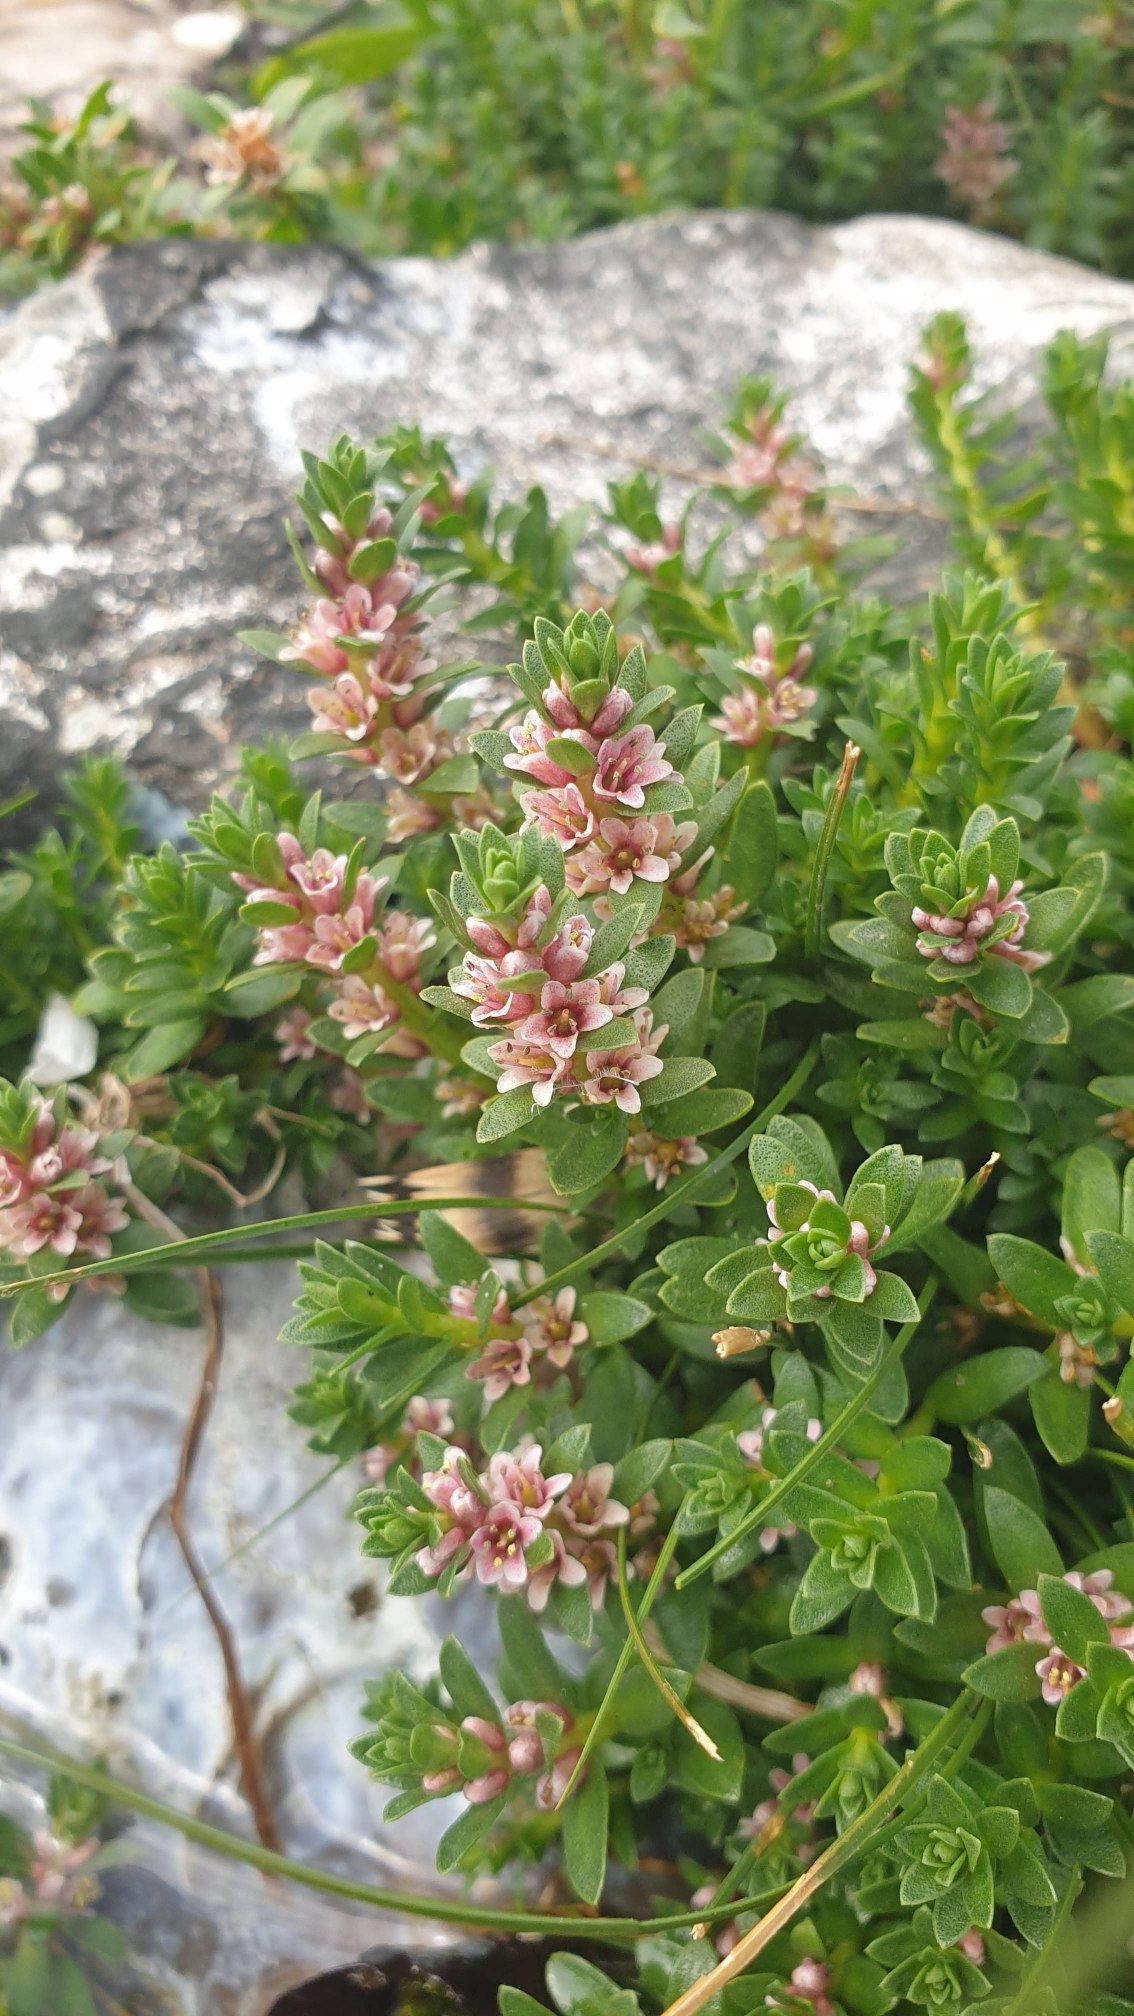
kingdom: Plantae
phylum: Tracheophyta
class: Magnoliopsida
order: Ericales
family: Primulaceae
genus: Lysimachia
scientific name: Lysimachia maritima
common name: Sandkryb
